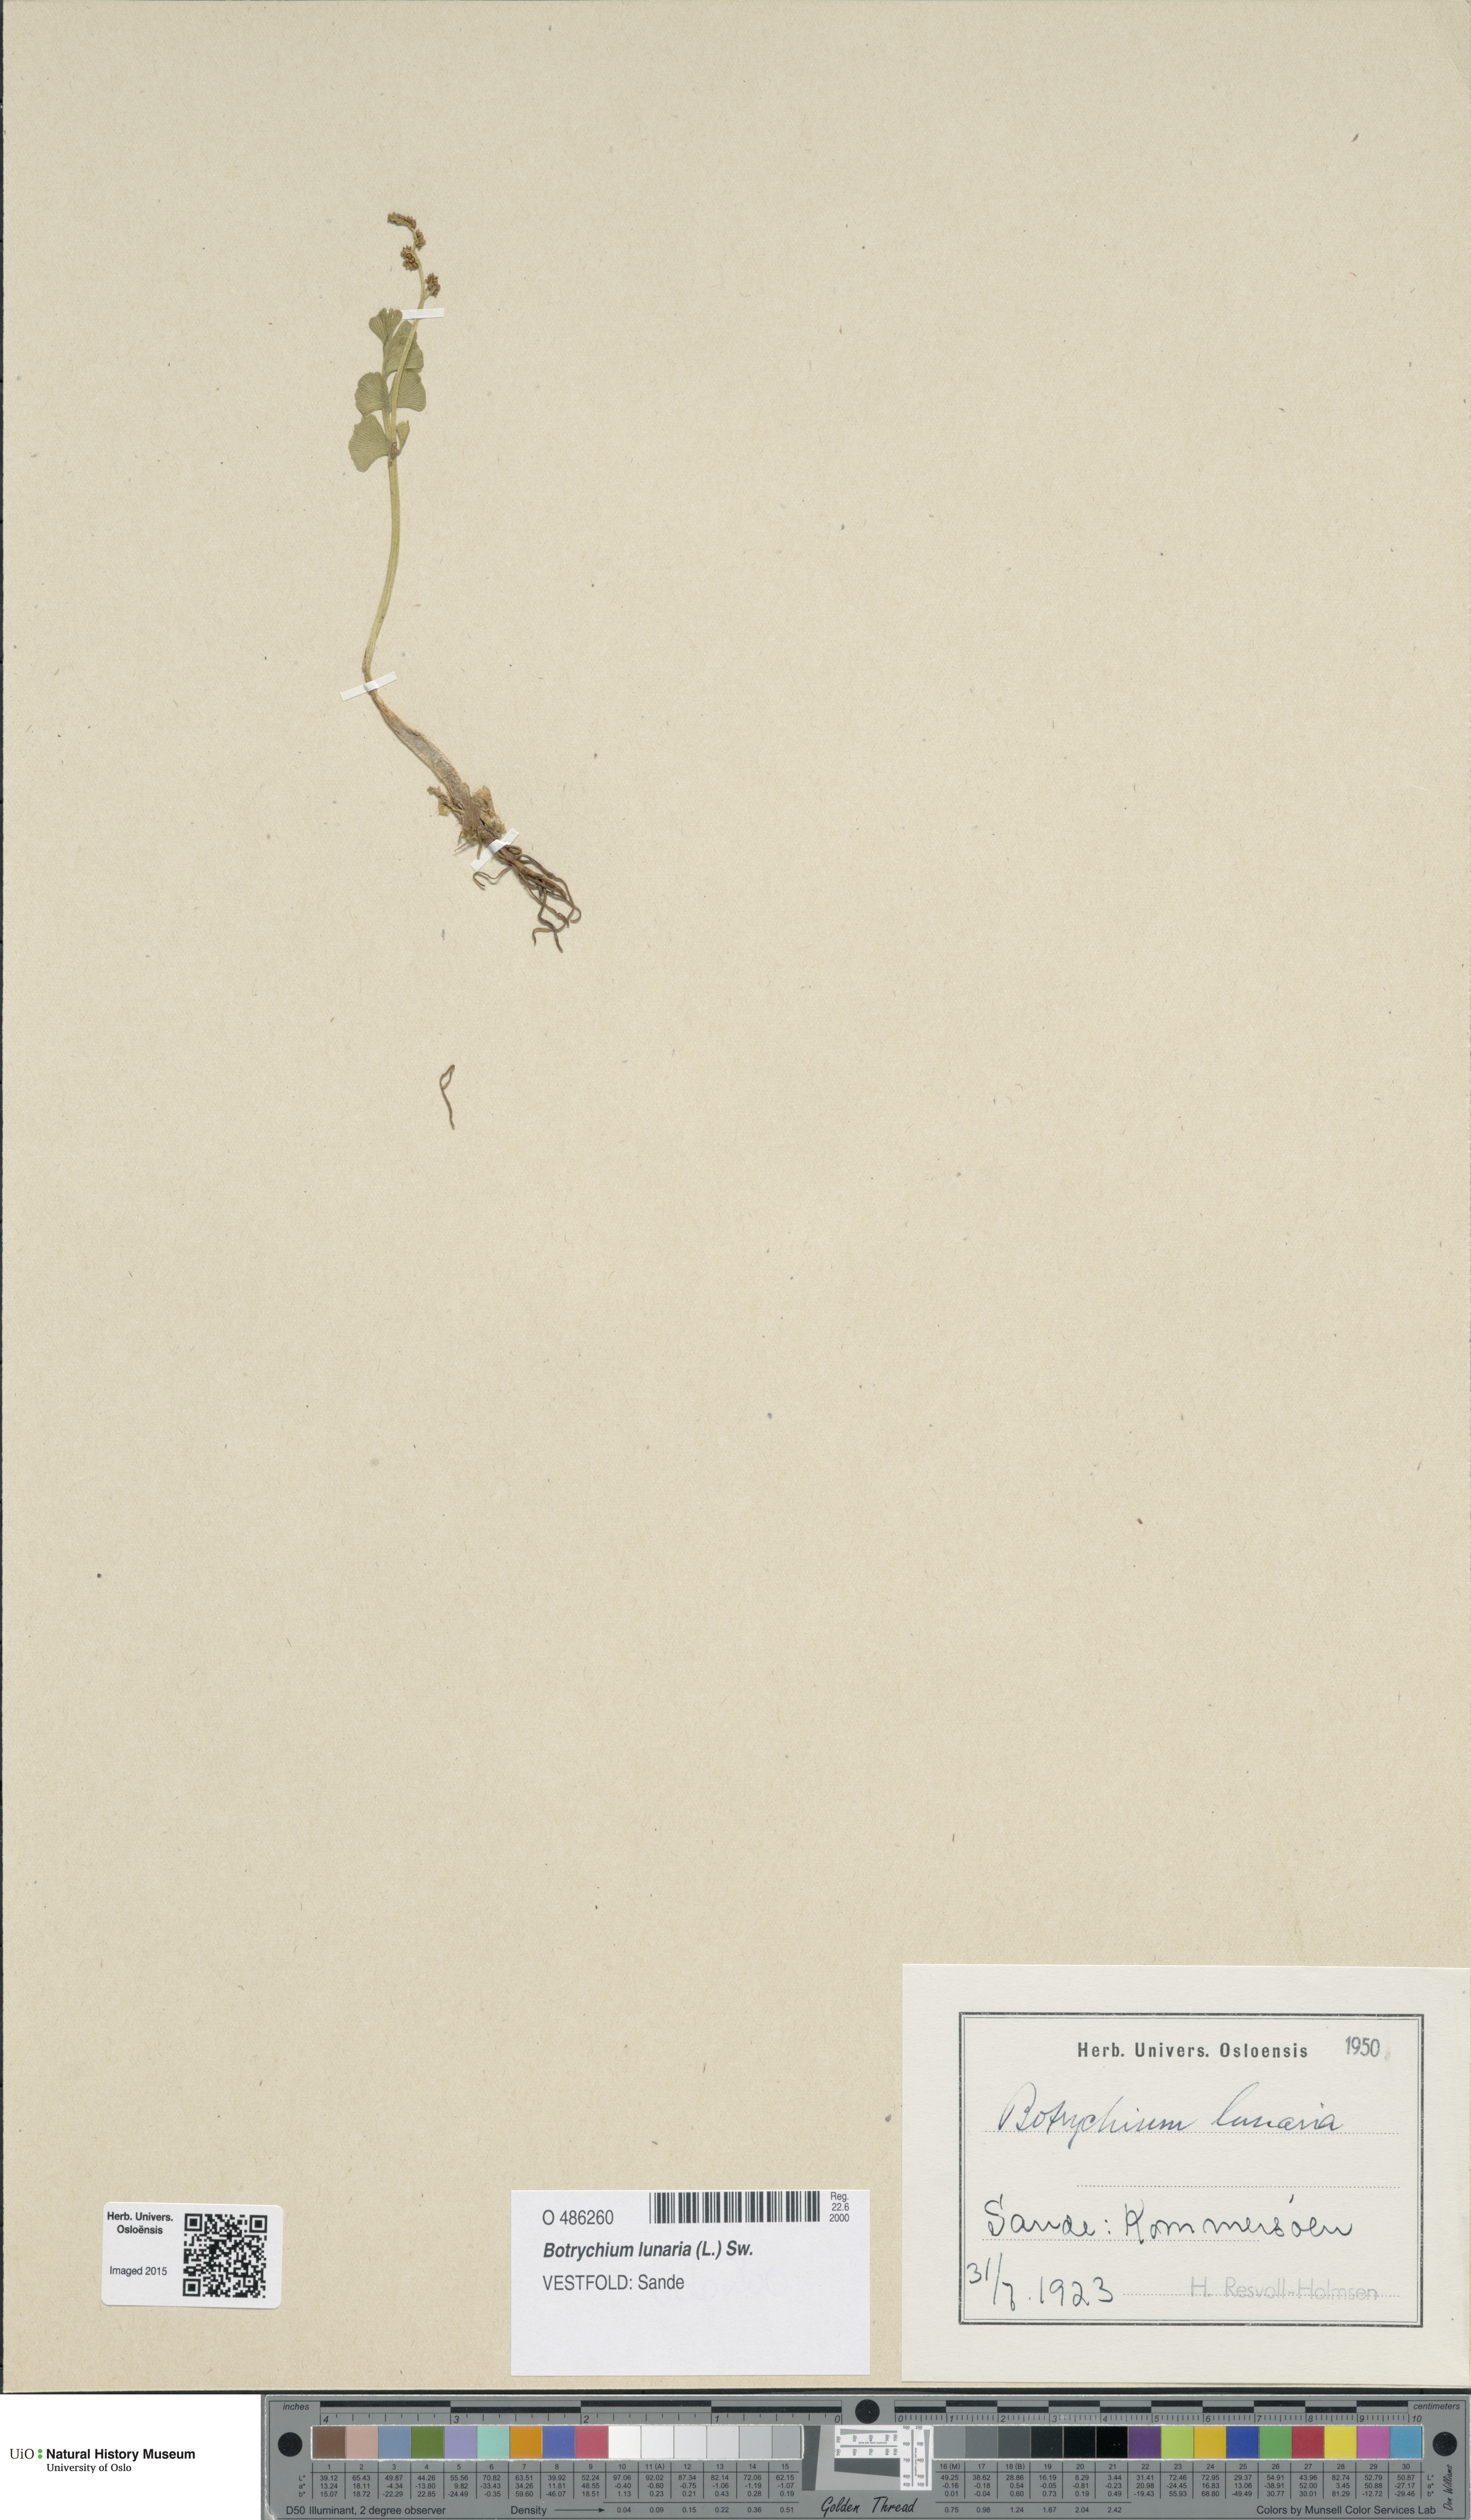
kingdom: Plantae
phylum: Tracheophyta
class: Polypodiopsida
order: Ophioglossales
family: Ophioglossaceae
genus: Botrychium
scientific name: Botrychium lunaria
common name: Moonwort
